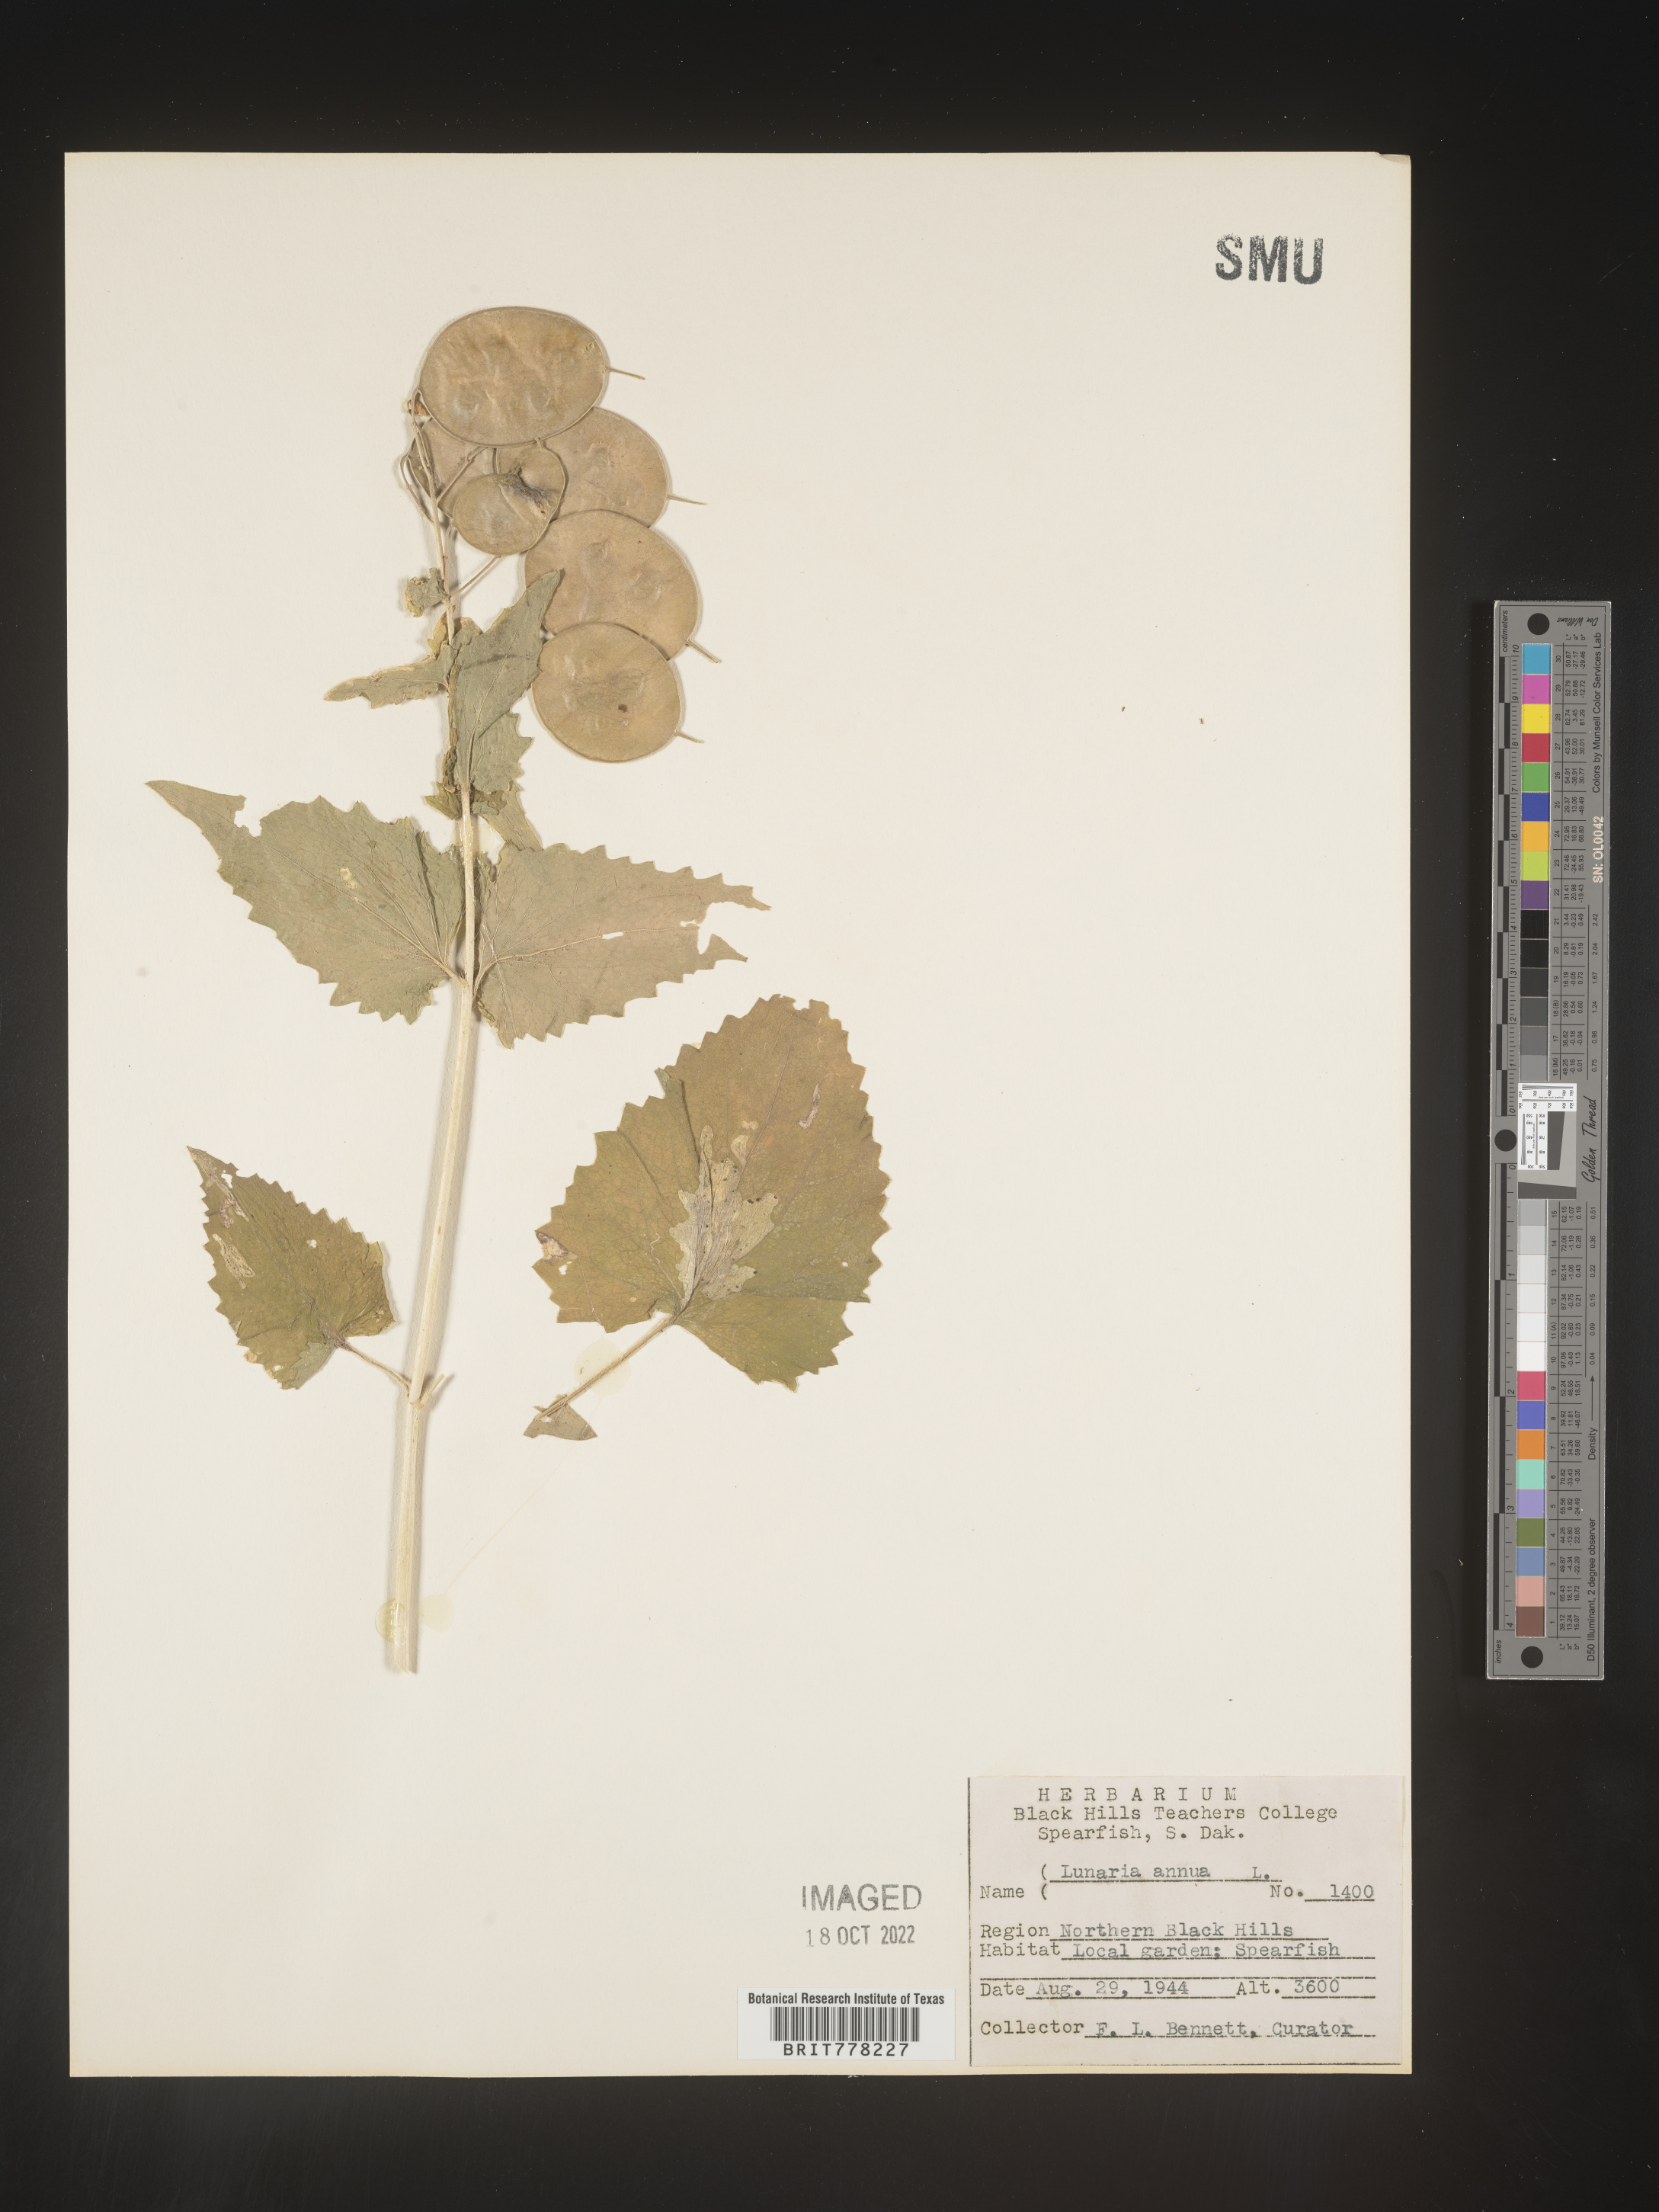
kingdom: Plantae
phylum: Tracheophyta
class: Magnoliopsida
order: Brassicales
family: Brassicaceae
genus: Lunaria
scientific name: Lunaria
